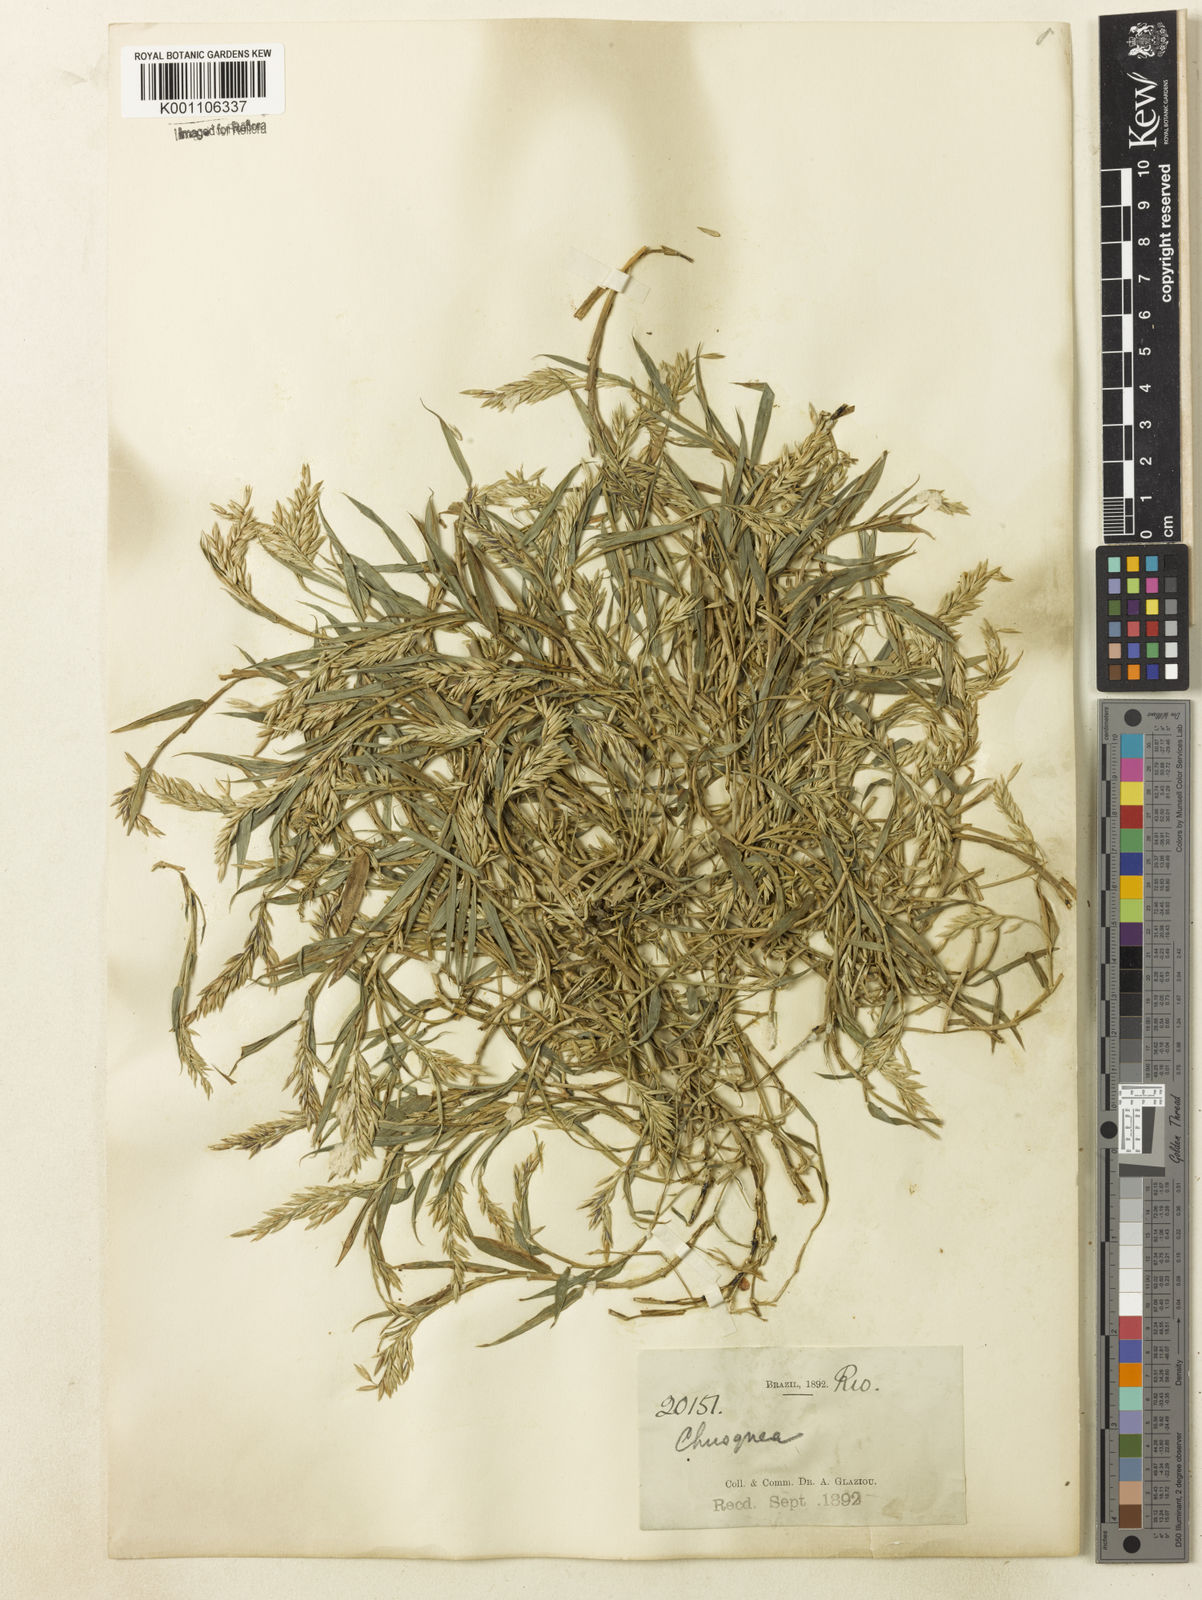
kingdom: Plantae
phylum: Tracheophyta
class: Liliopsida
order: Poales
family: Poaceae
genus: Chusquea
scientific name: Chusquea
